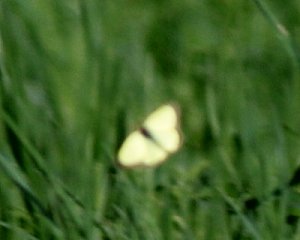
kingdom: Animalia
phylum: Arthropoda
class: Insecta
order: Lepidoptera
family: Pieridae
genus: Colias
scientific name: Colias philodice
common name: Clouded Sulphur
